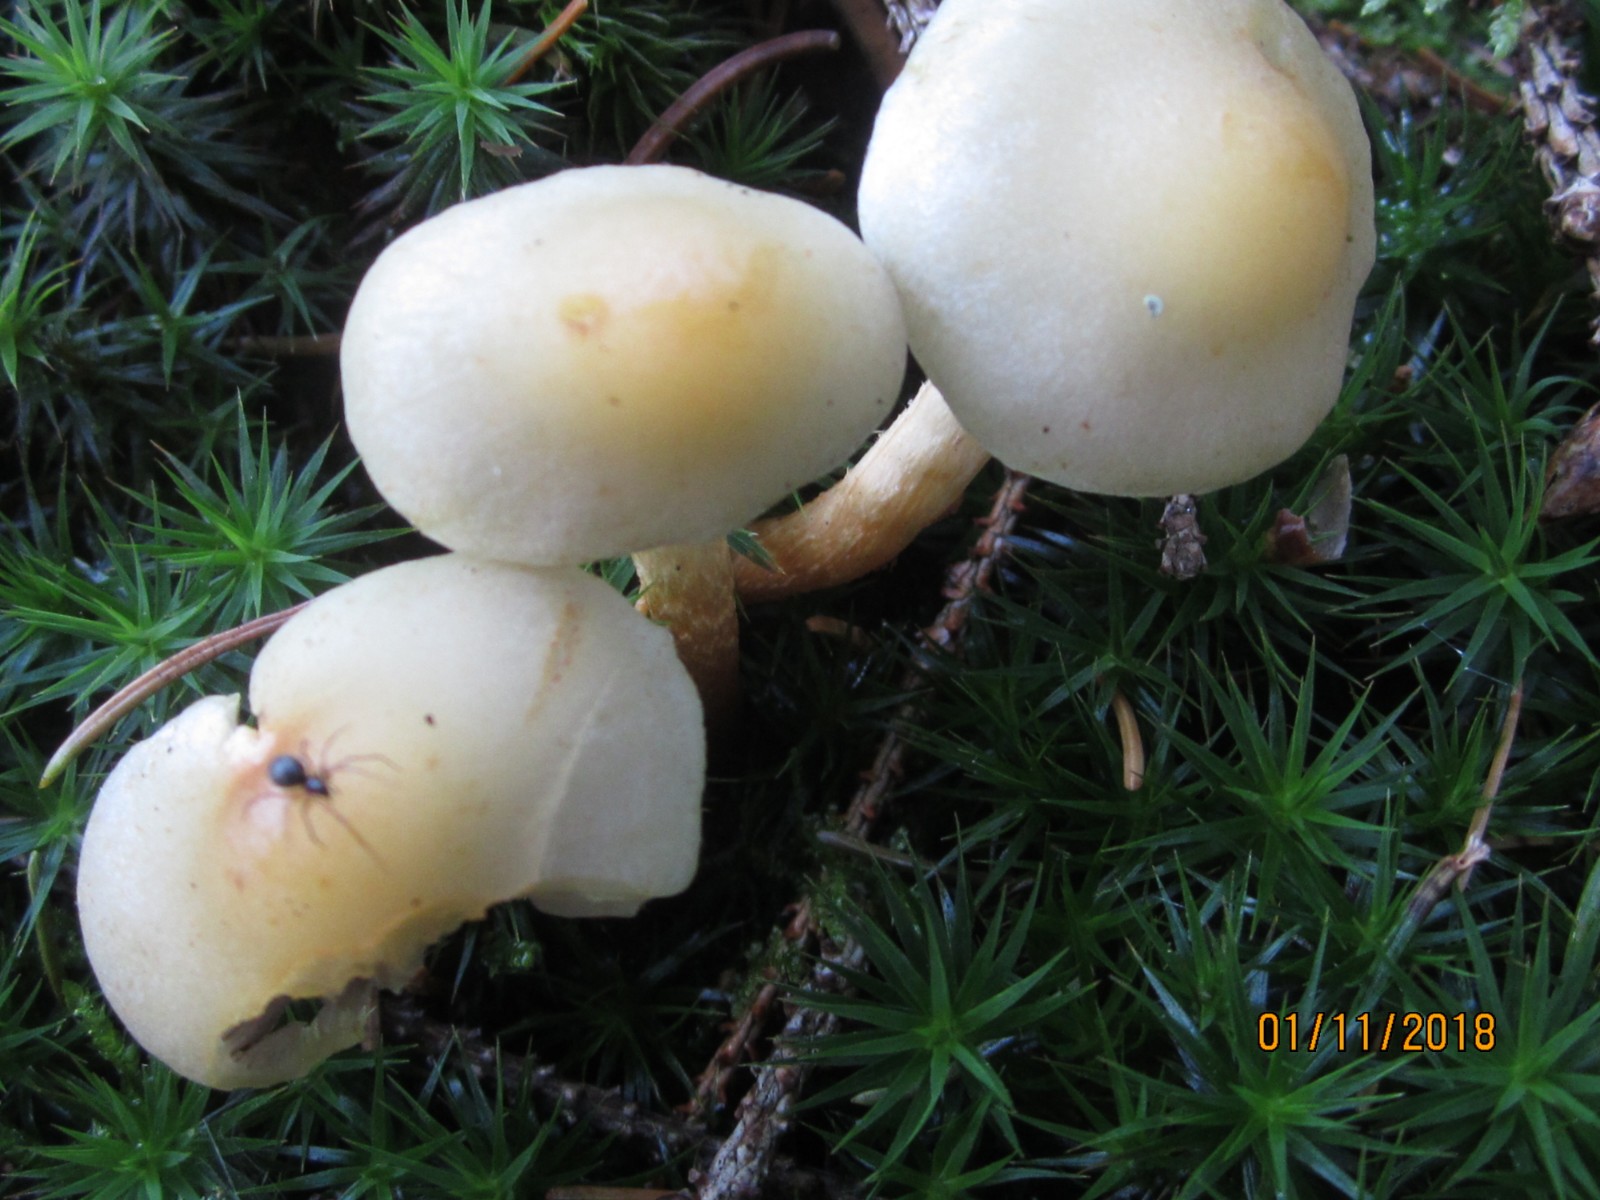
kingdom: Fungi
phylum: Basidiomycota
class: Agaricomycetes
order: Agaricales
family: Strophariaceae
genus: Hypholoma
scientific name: Hypholoma capnoides
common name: gran-svovlhat
